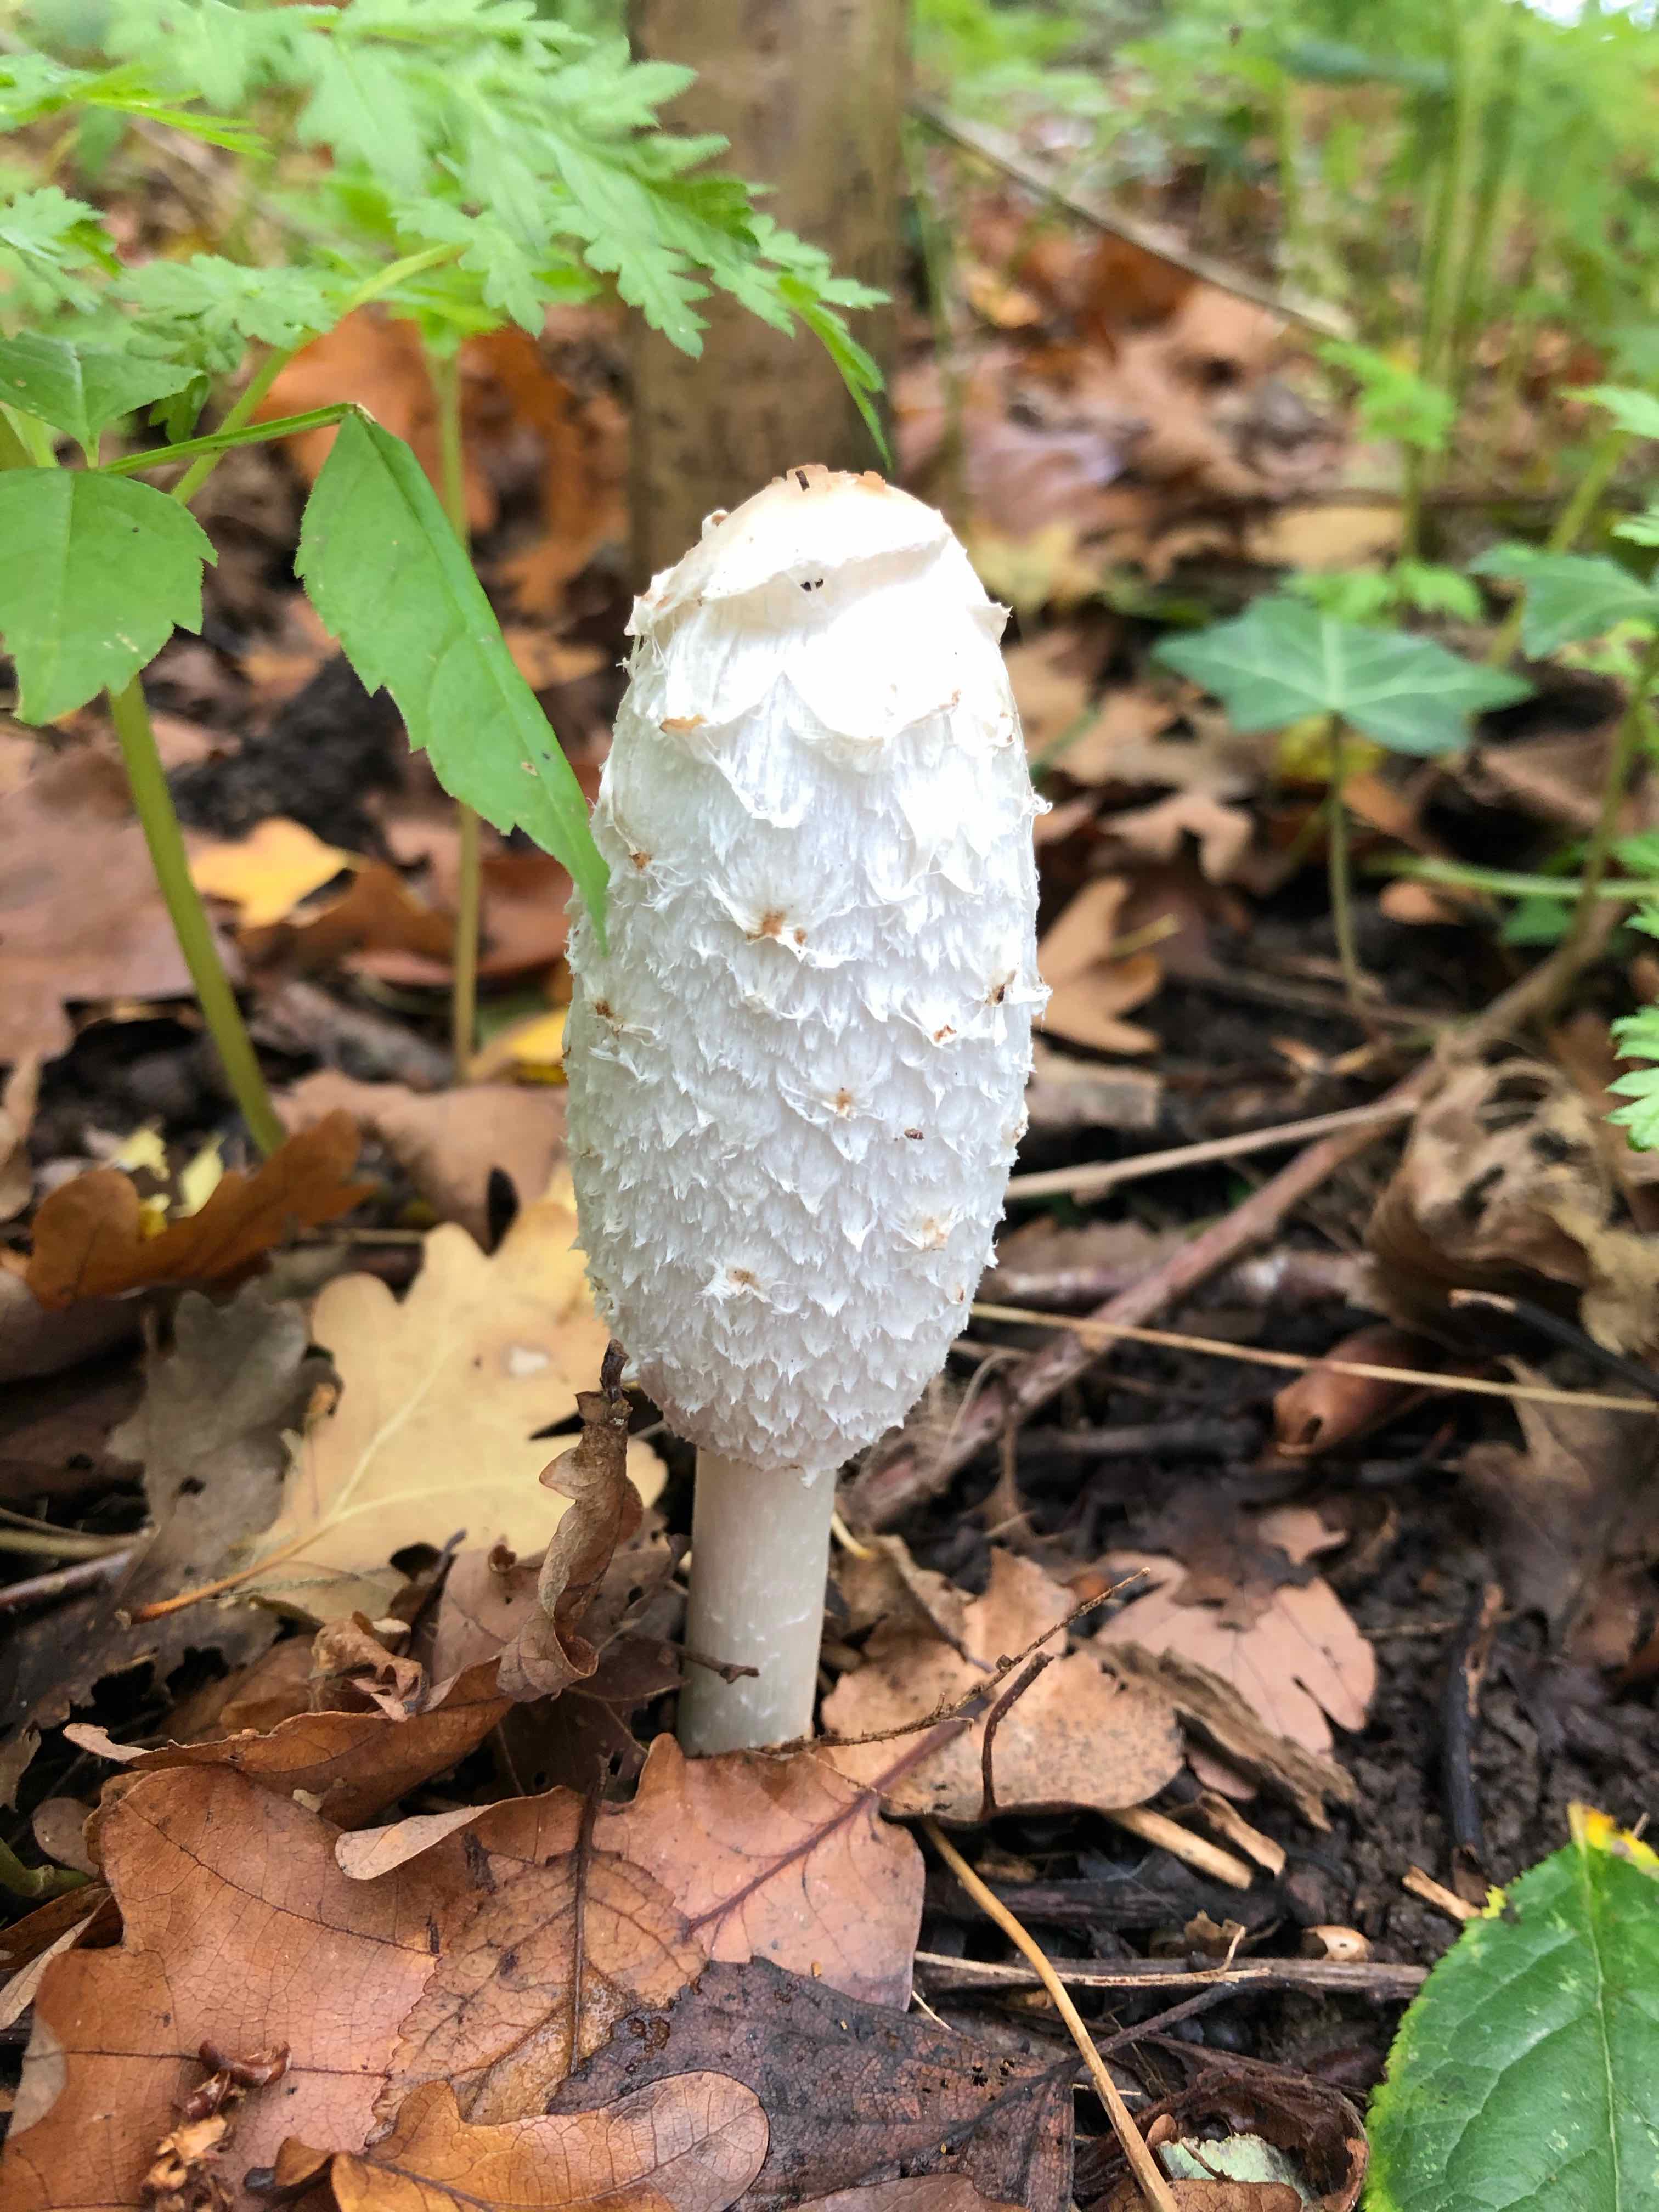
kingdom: Fungi
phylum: Basidiomycota
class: Agaricomycetes
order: Agaricales
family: Agaricaceae
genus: Coprinus
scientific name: Coprinus comatus
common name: stor parykhat
